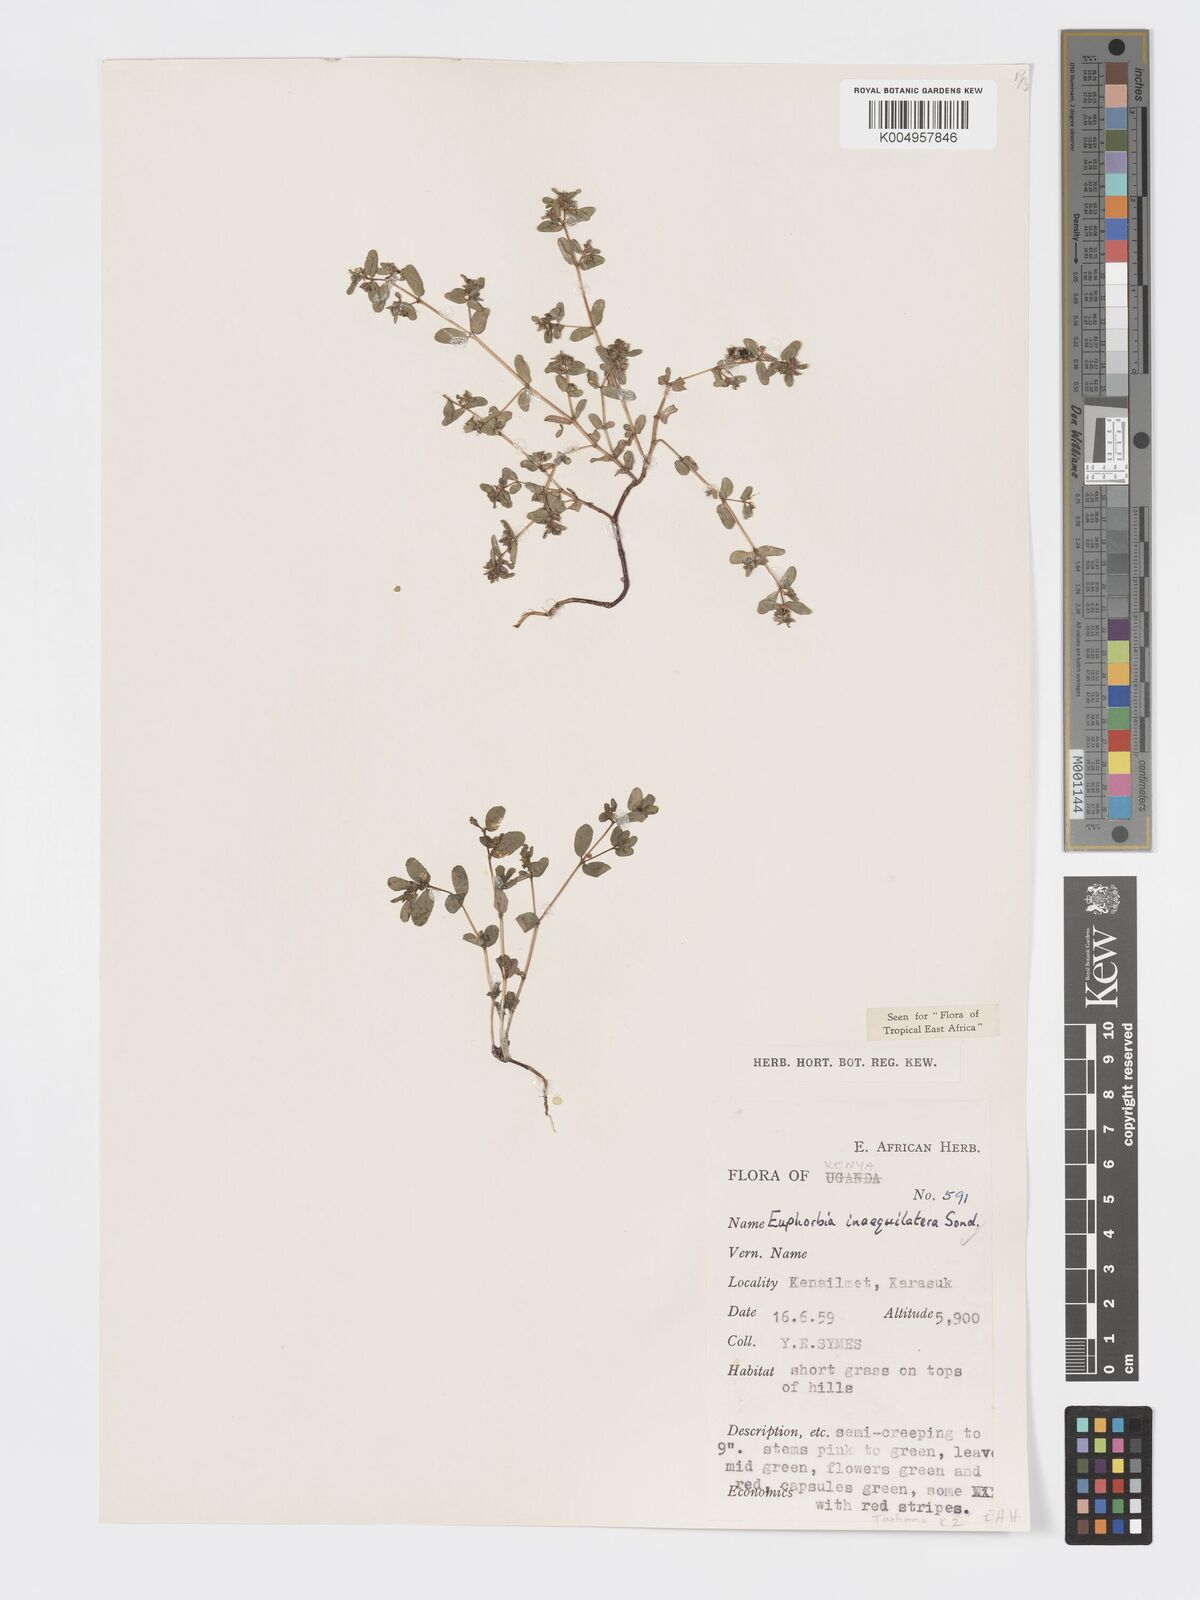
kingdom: Plantae
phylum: Tracheophyta
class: Magnoliopsida
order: Malpighiales
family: Euphorbiaceae
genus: Euphorbia
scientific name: Euphorbia inaequilatera
